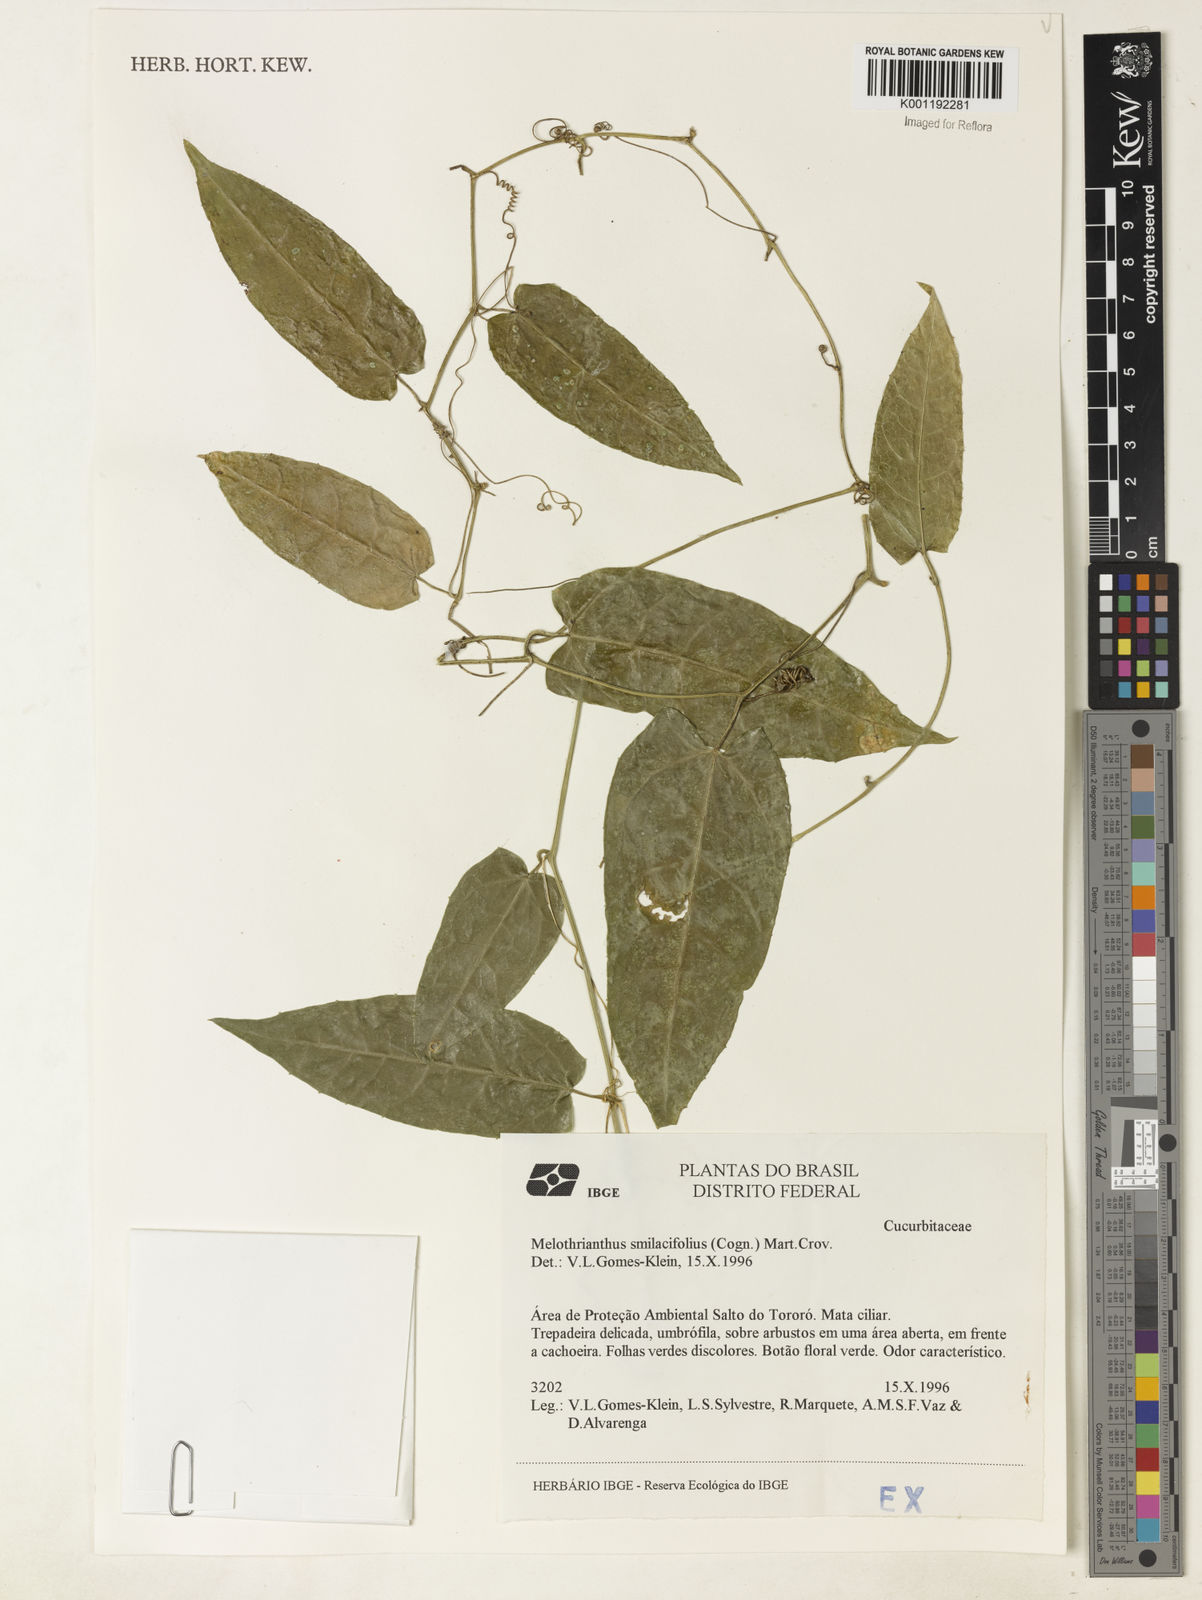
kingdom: Plantae
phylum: Tracheophyta
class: Magnoliopsida
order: Cucurbitales
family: Cucurbitaceae
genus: Apodanthera
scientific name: Apodanthera smilacifolia
